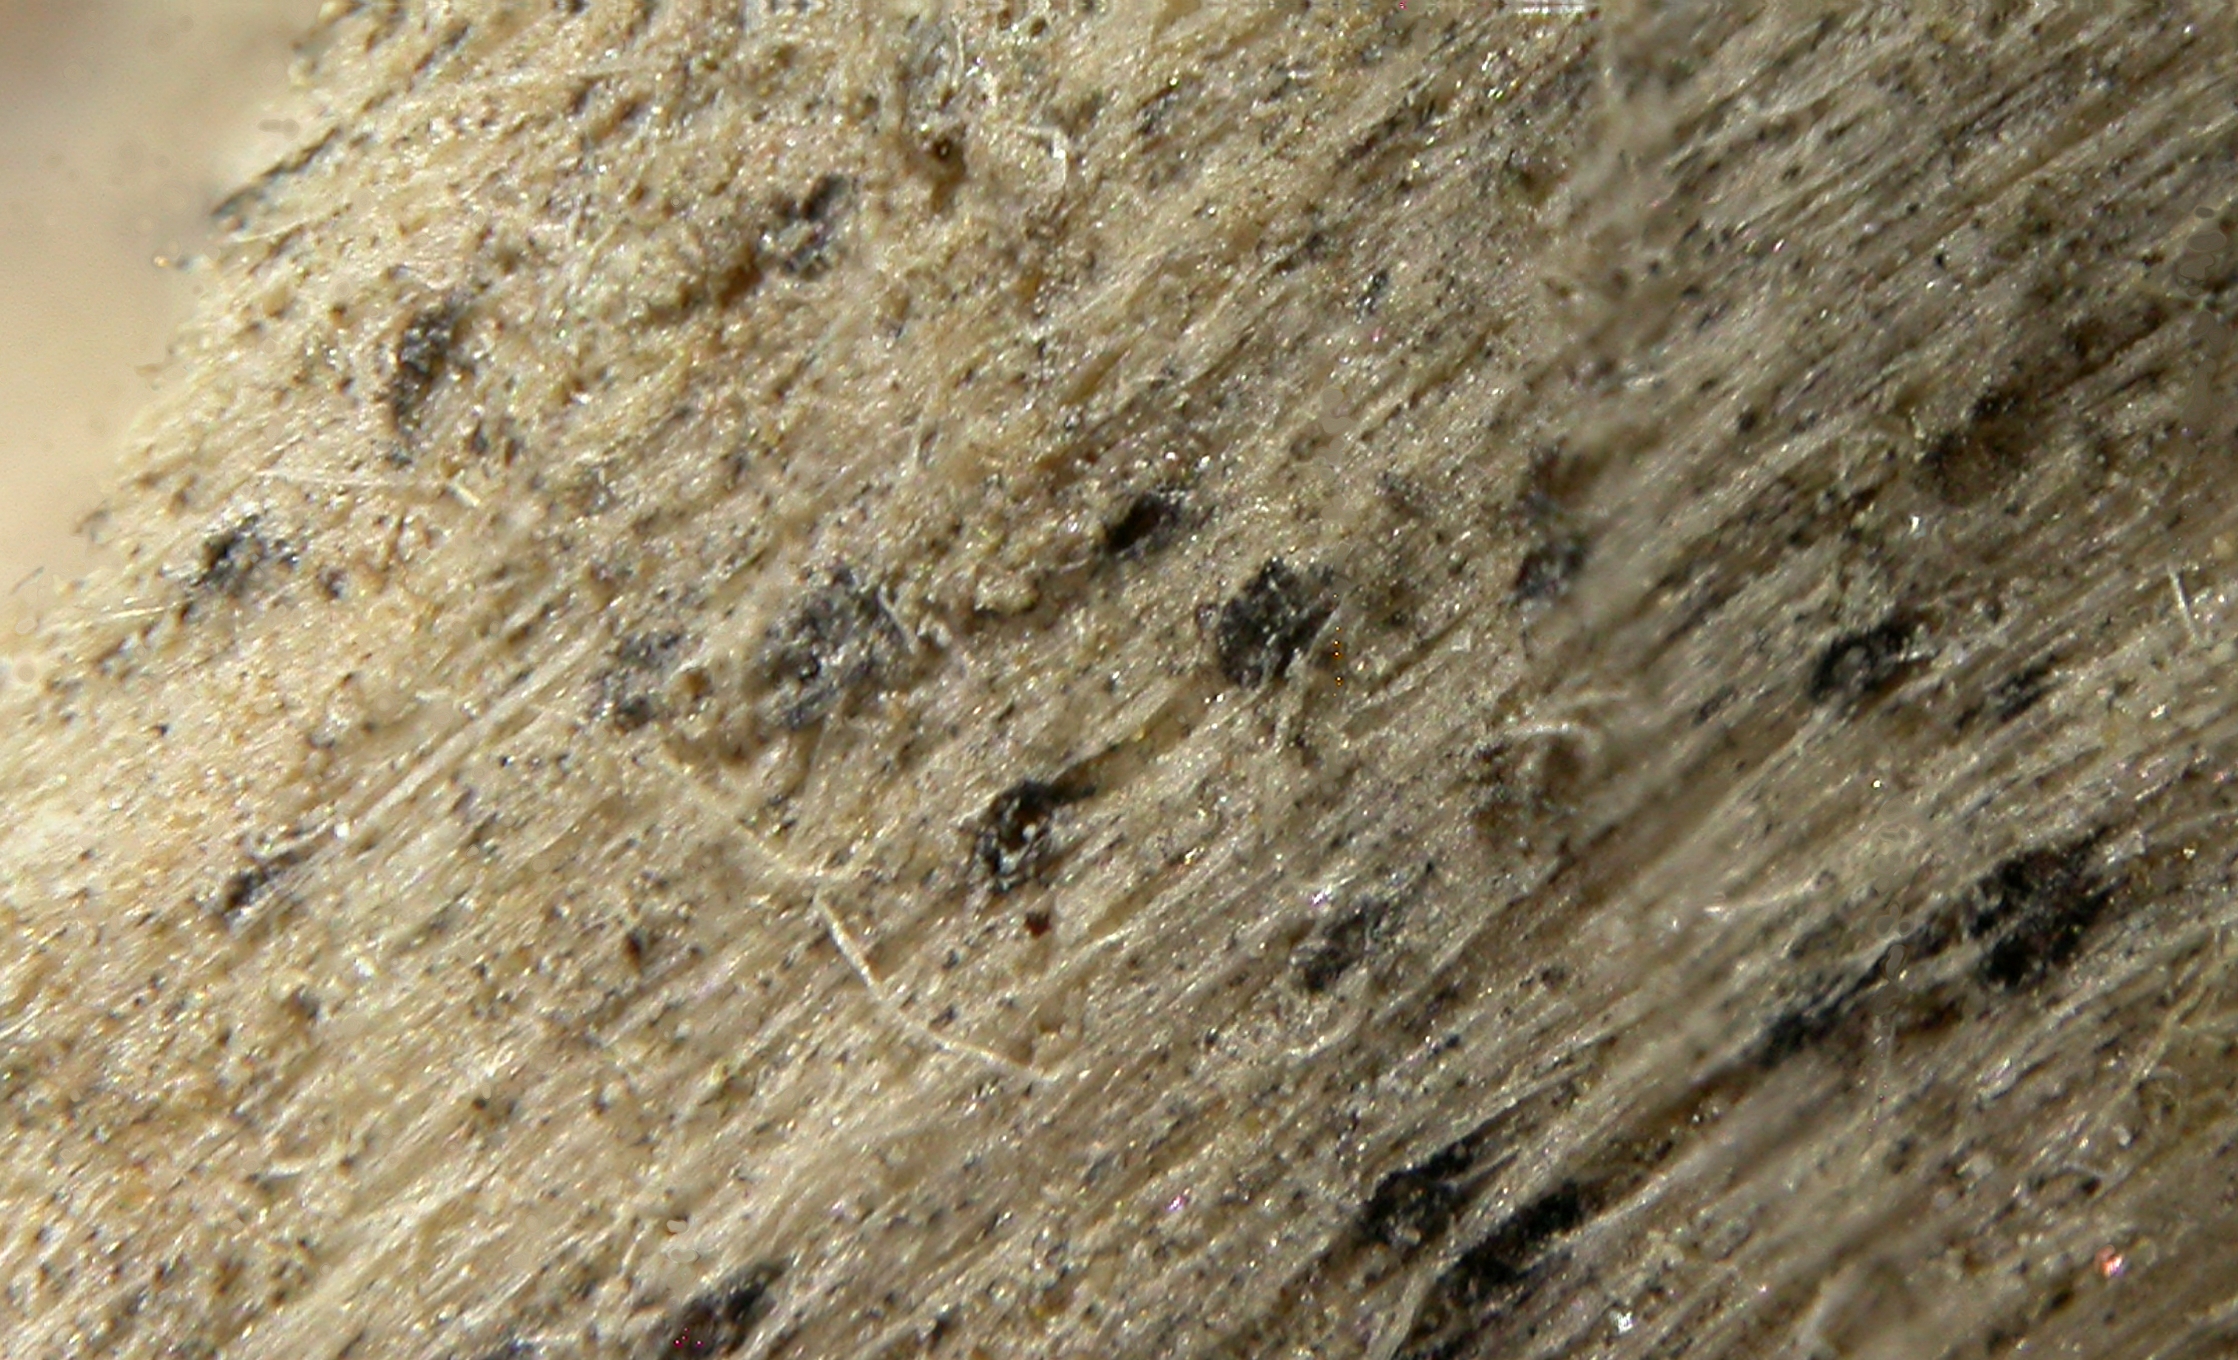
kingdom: Fungi
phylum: Ascomycota
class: Dothideomycetes
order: Pleosporales
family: Didymosphaeriaceae
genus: Didymosphaeria
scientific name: Didymosphaeria lignicola
